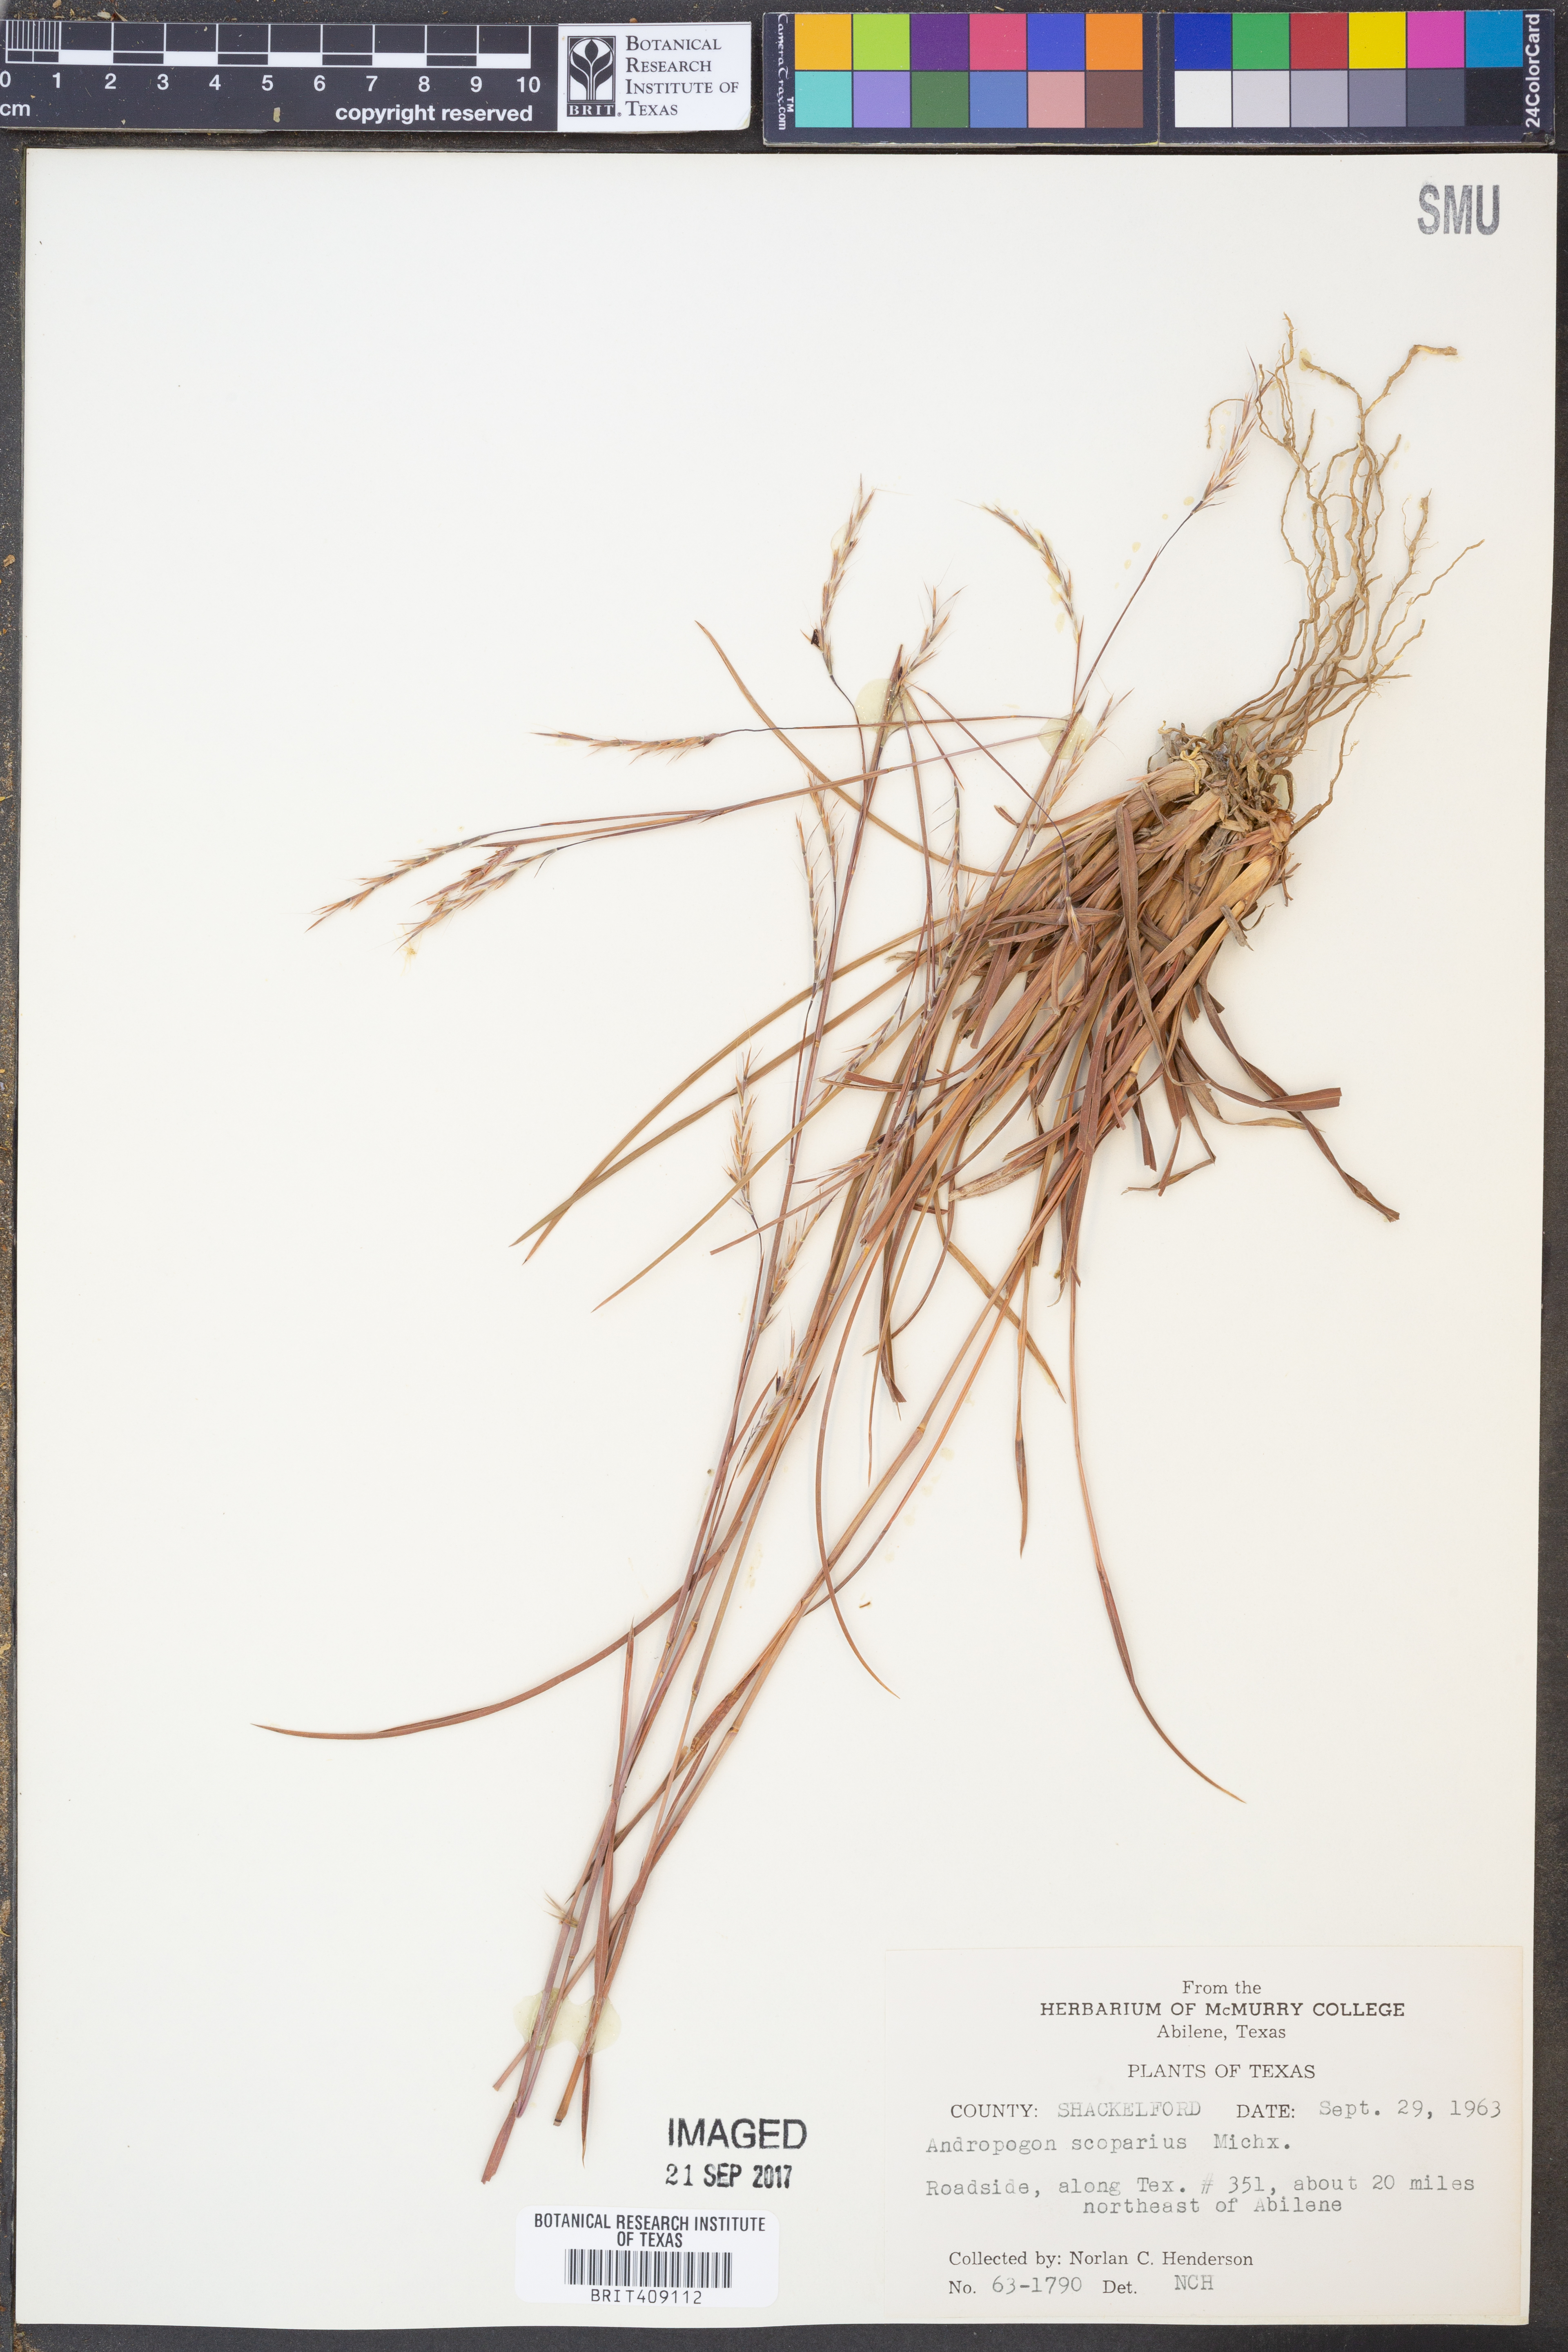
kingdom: Plantae
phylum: Tracheophyta
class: Liliopsida
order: Poales
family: Poaceae
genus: Schizachyrium
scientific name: Schizachyrium scoparium
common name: Little bluestem
